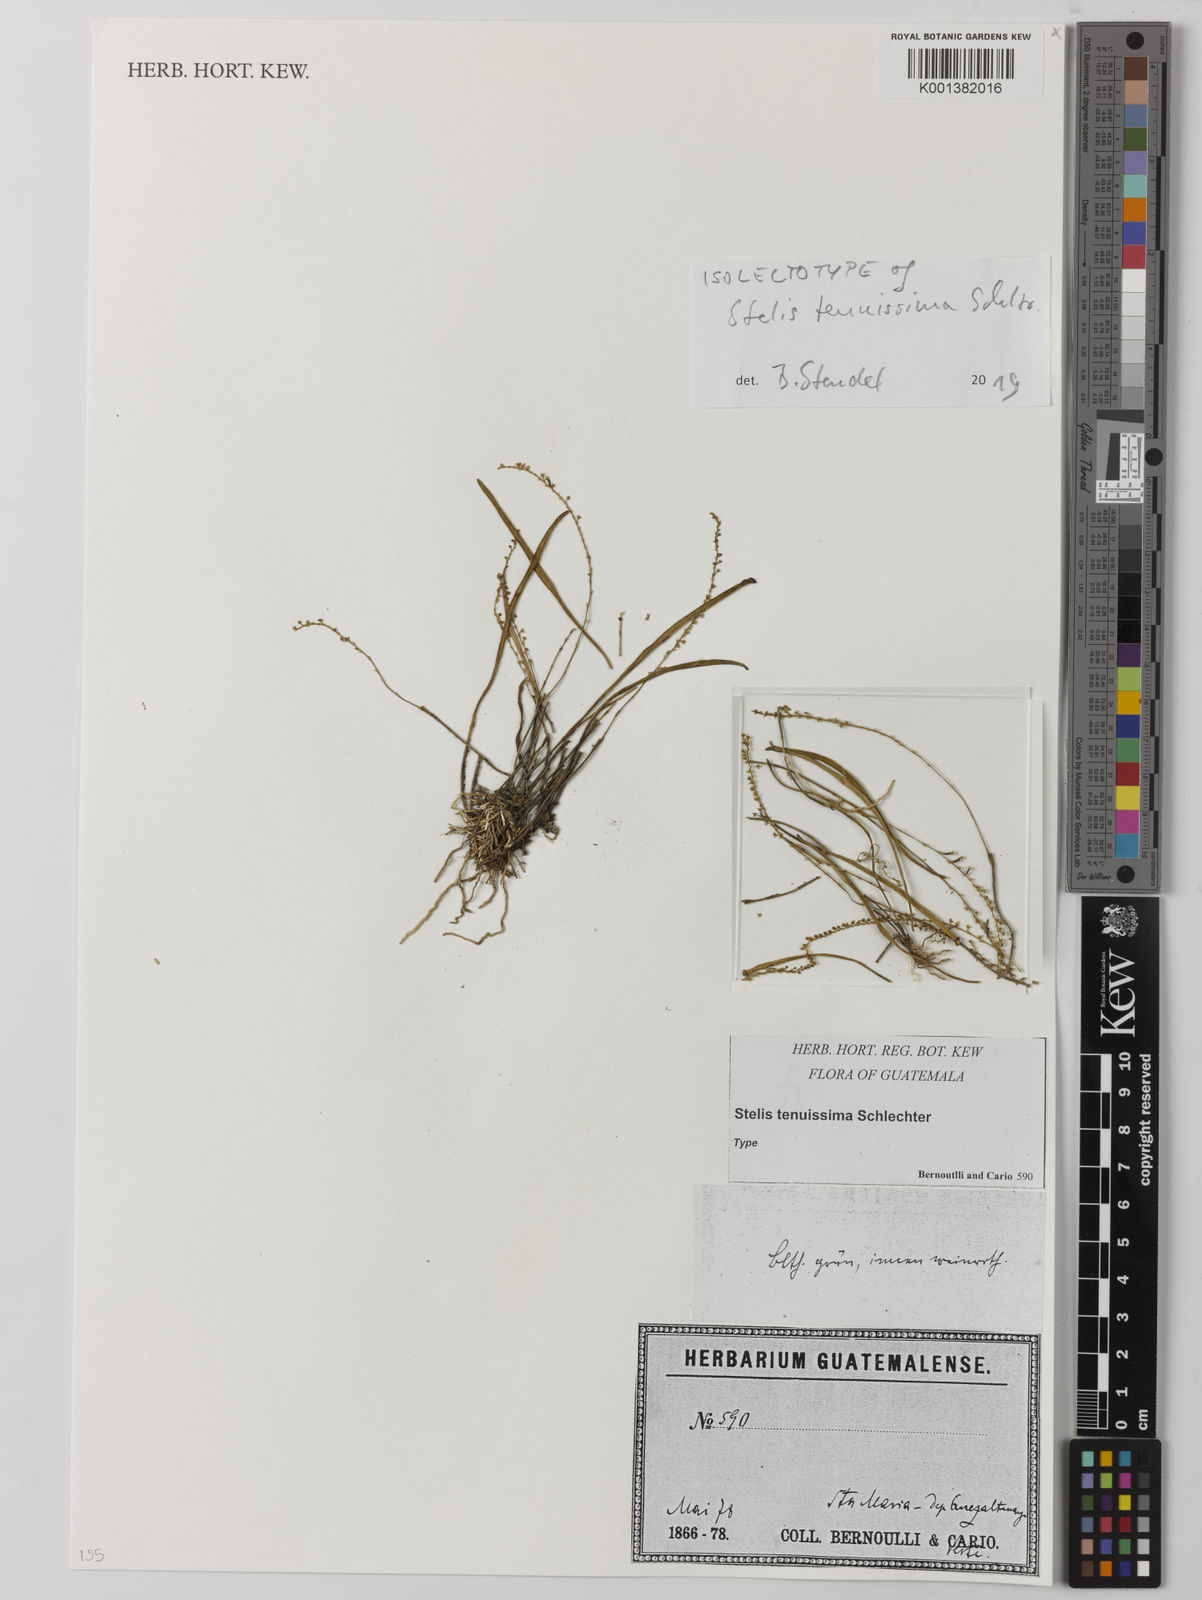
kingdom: Plantae
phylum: Tracheophyta
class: Liliopsida
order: Asparagales
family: Orchidaceae
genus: Stelis
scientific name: Stelis tenuissima
